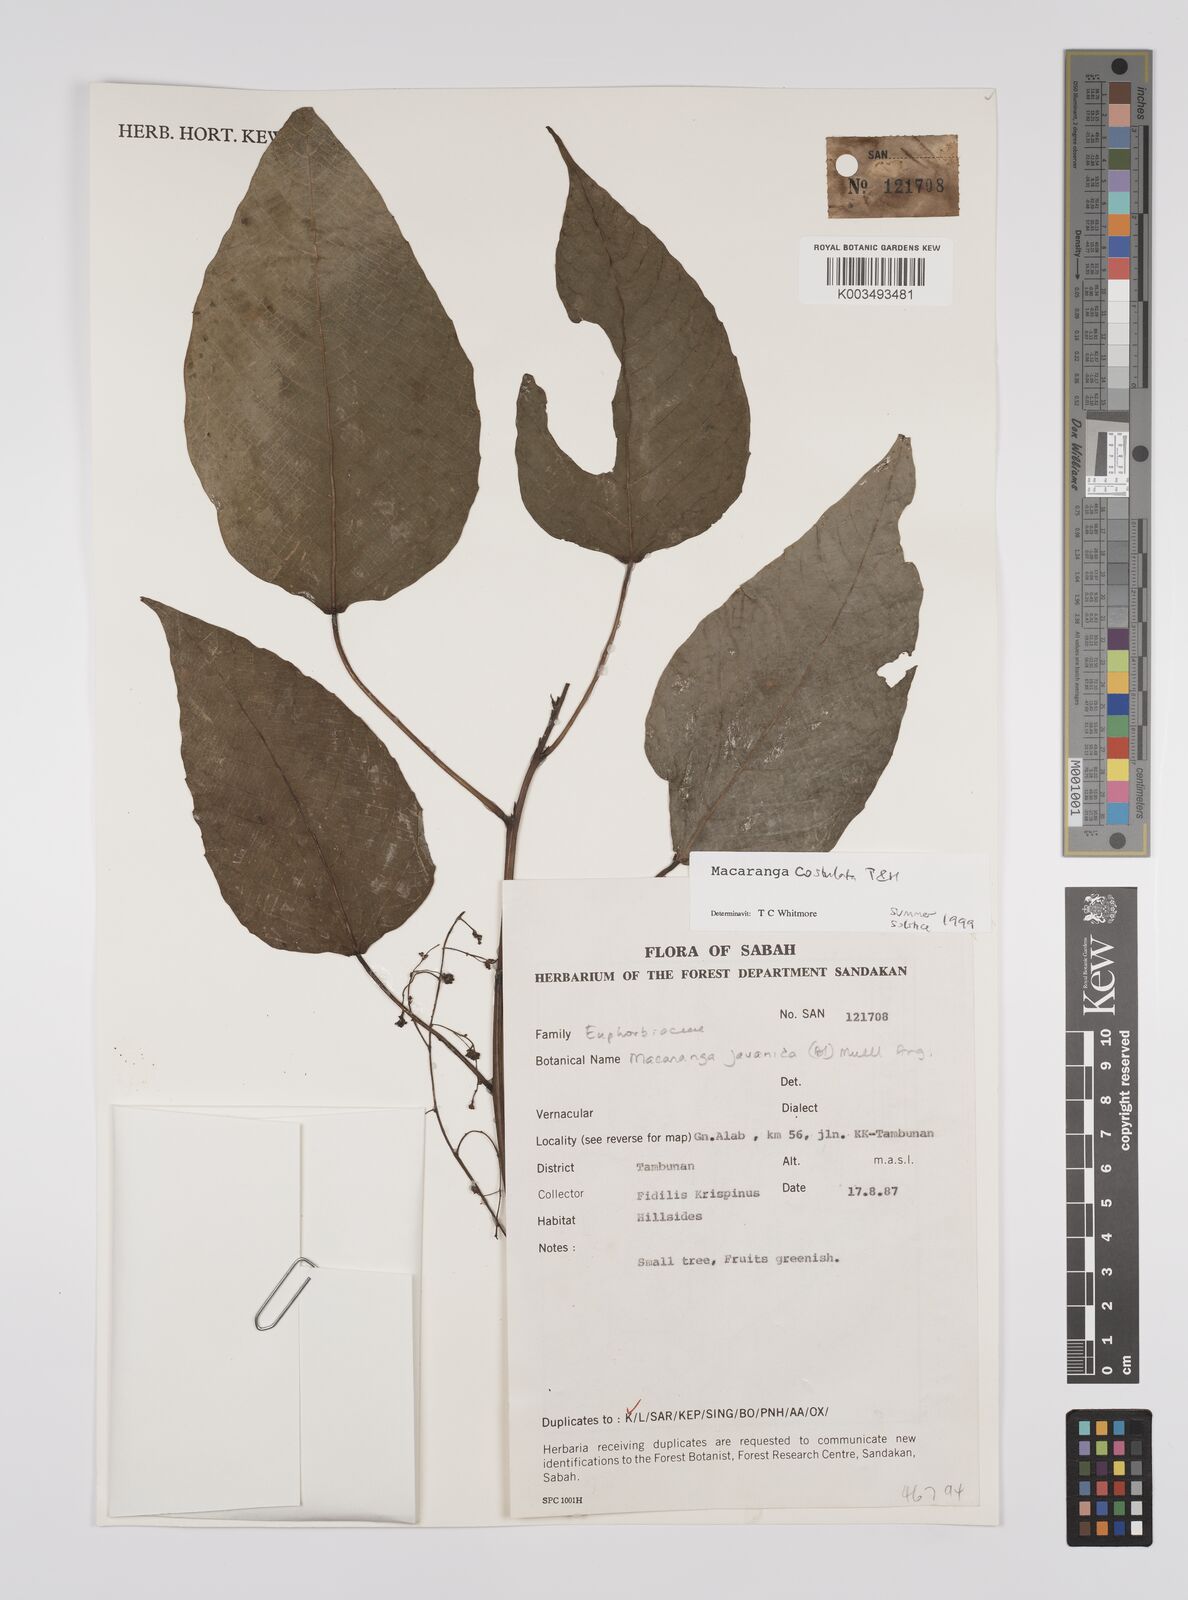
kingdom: Plantae
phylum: Tracheophyta
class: Magnoliopsida
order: Malpighiales
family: Euphorbiaceae
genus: Macaranga
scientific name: Macaranga costulata
